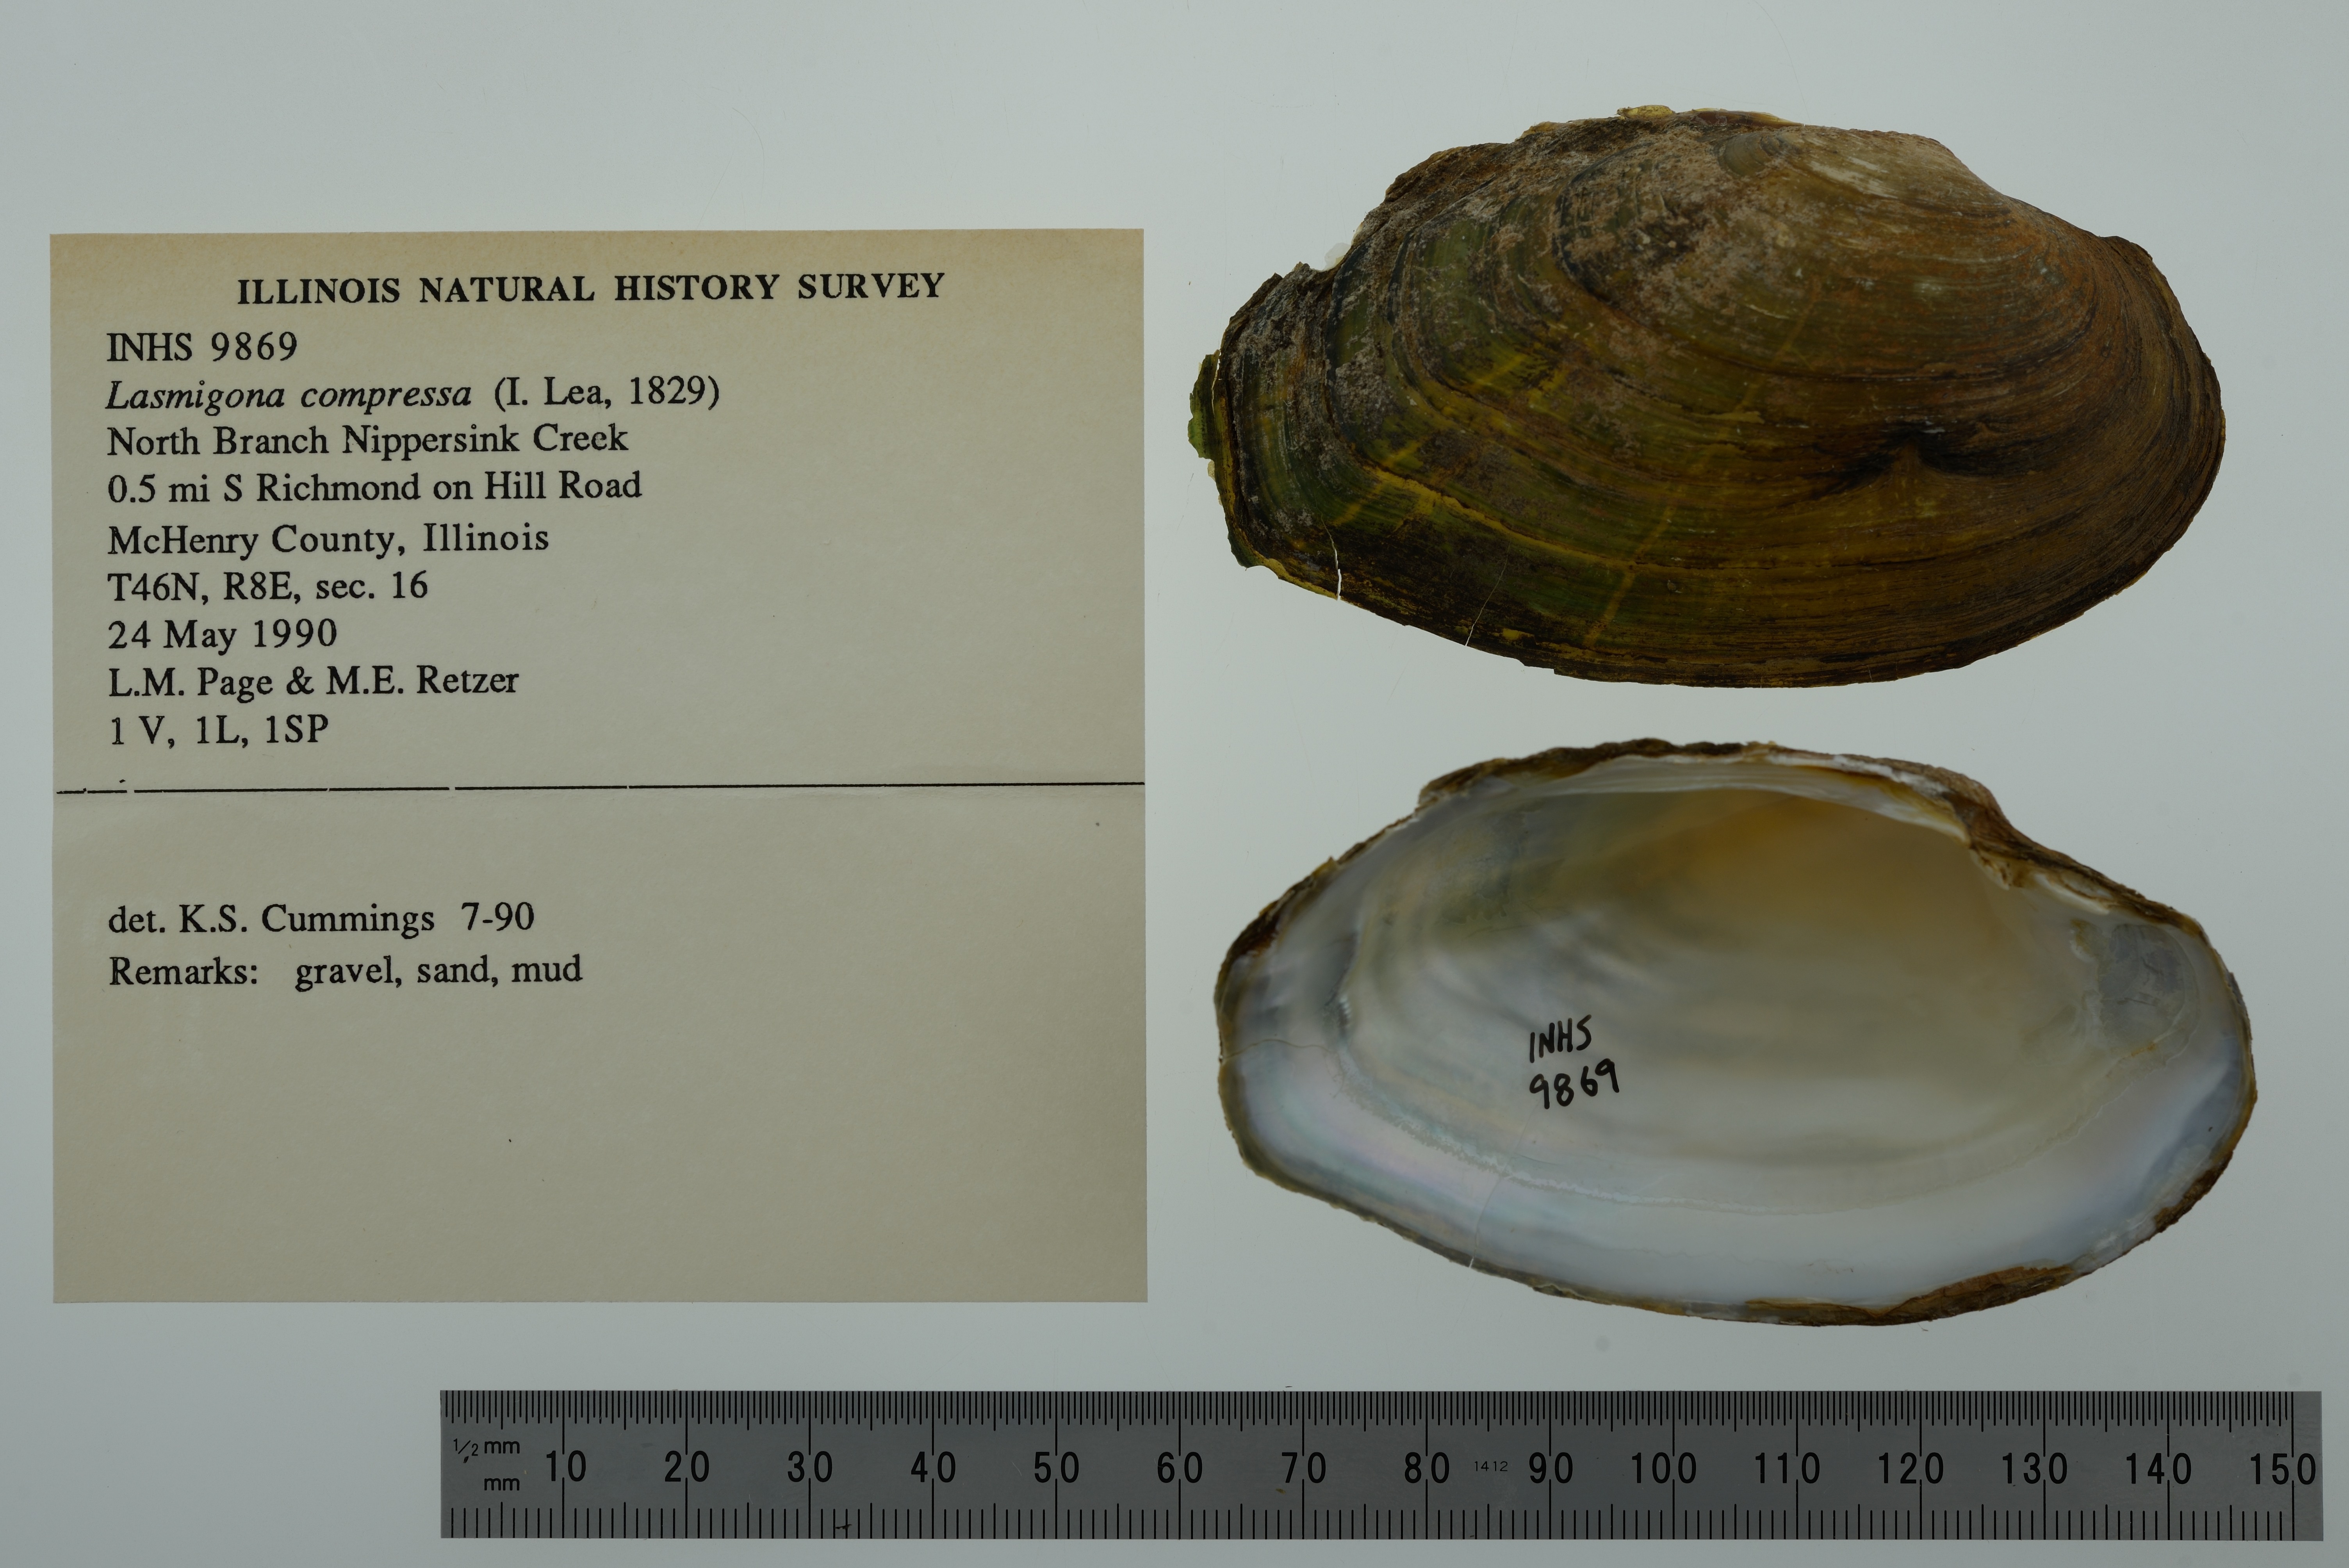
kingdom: Animalia
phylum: Mollusca
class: Bivalvia
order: Unionida
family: Unionidae
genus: Lasmigona
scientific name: Lasmigona compressa
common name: Creek heelsplitter
